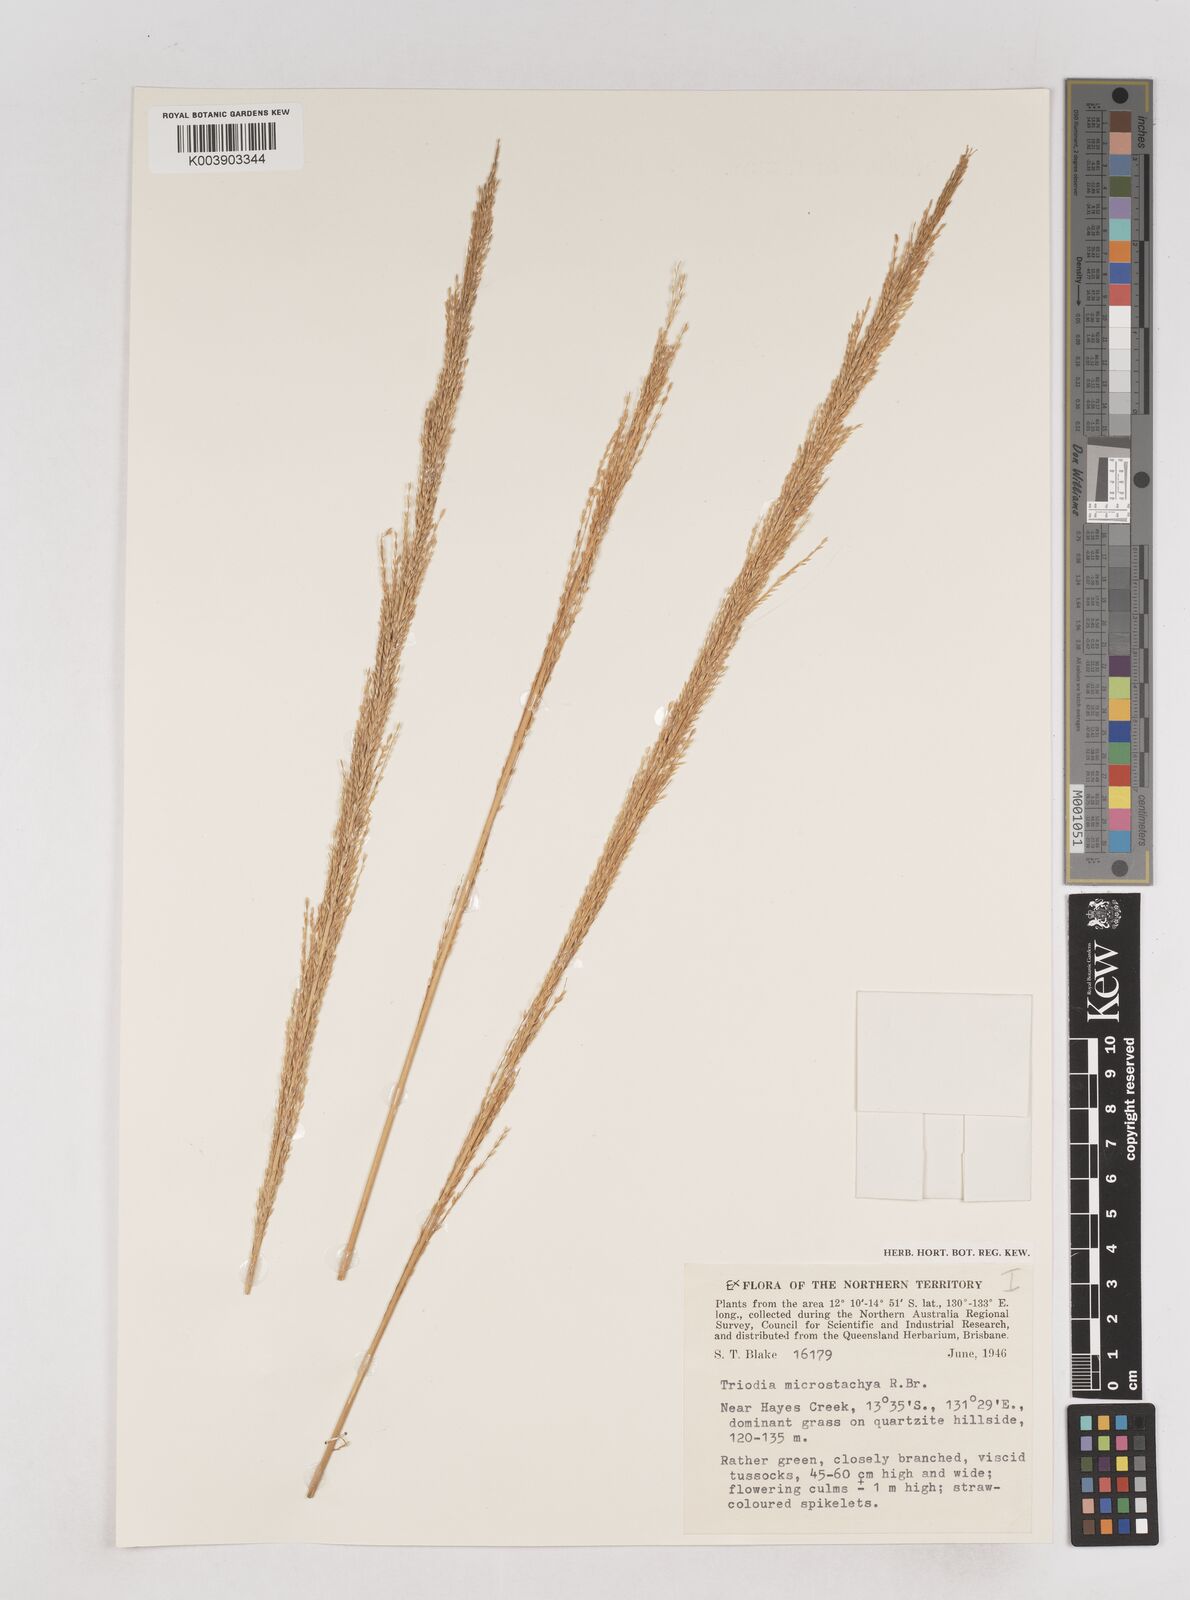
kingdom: Plantae
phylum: Tracheophyta
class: Liliopsida
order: Poales
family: Poaceae
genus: Triodia
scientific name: Triodia microstachya
